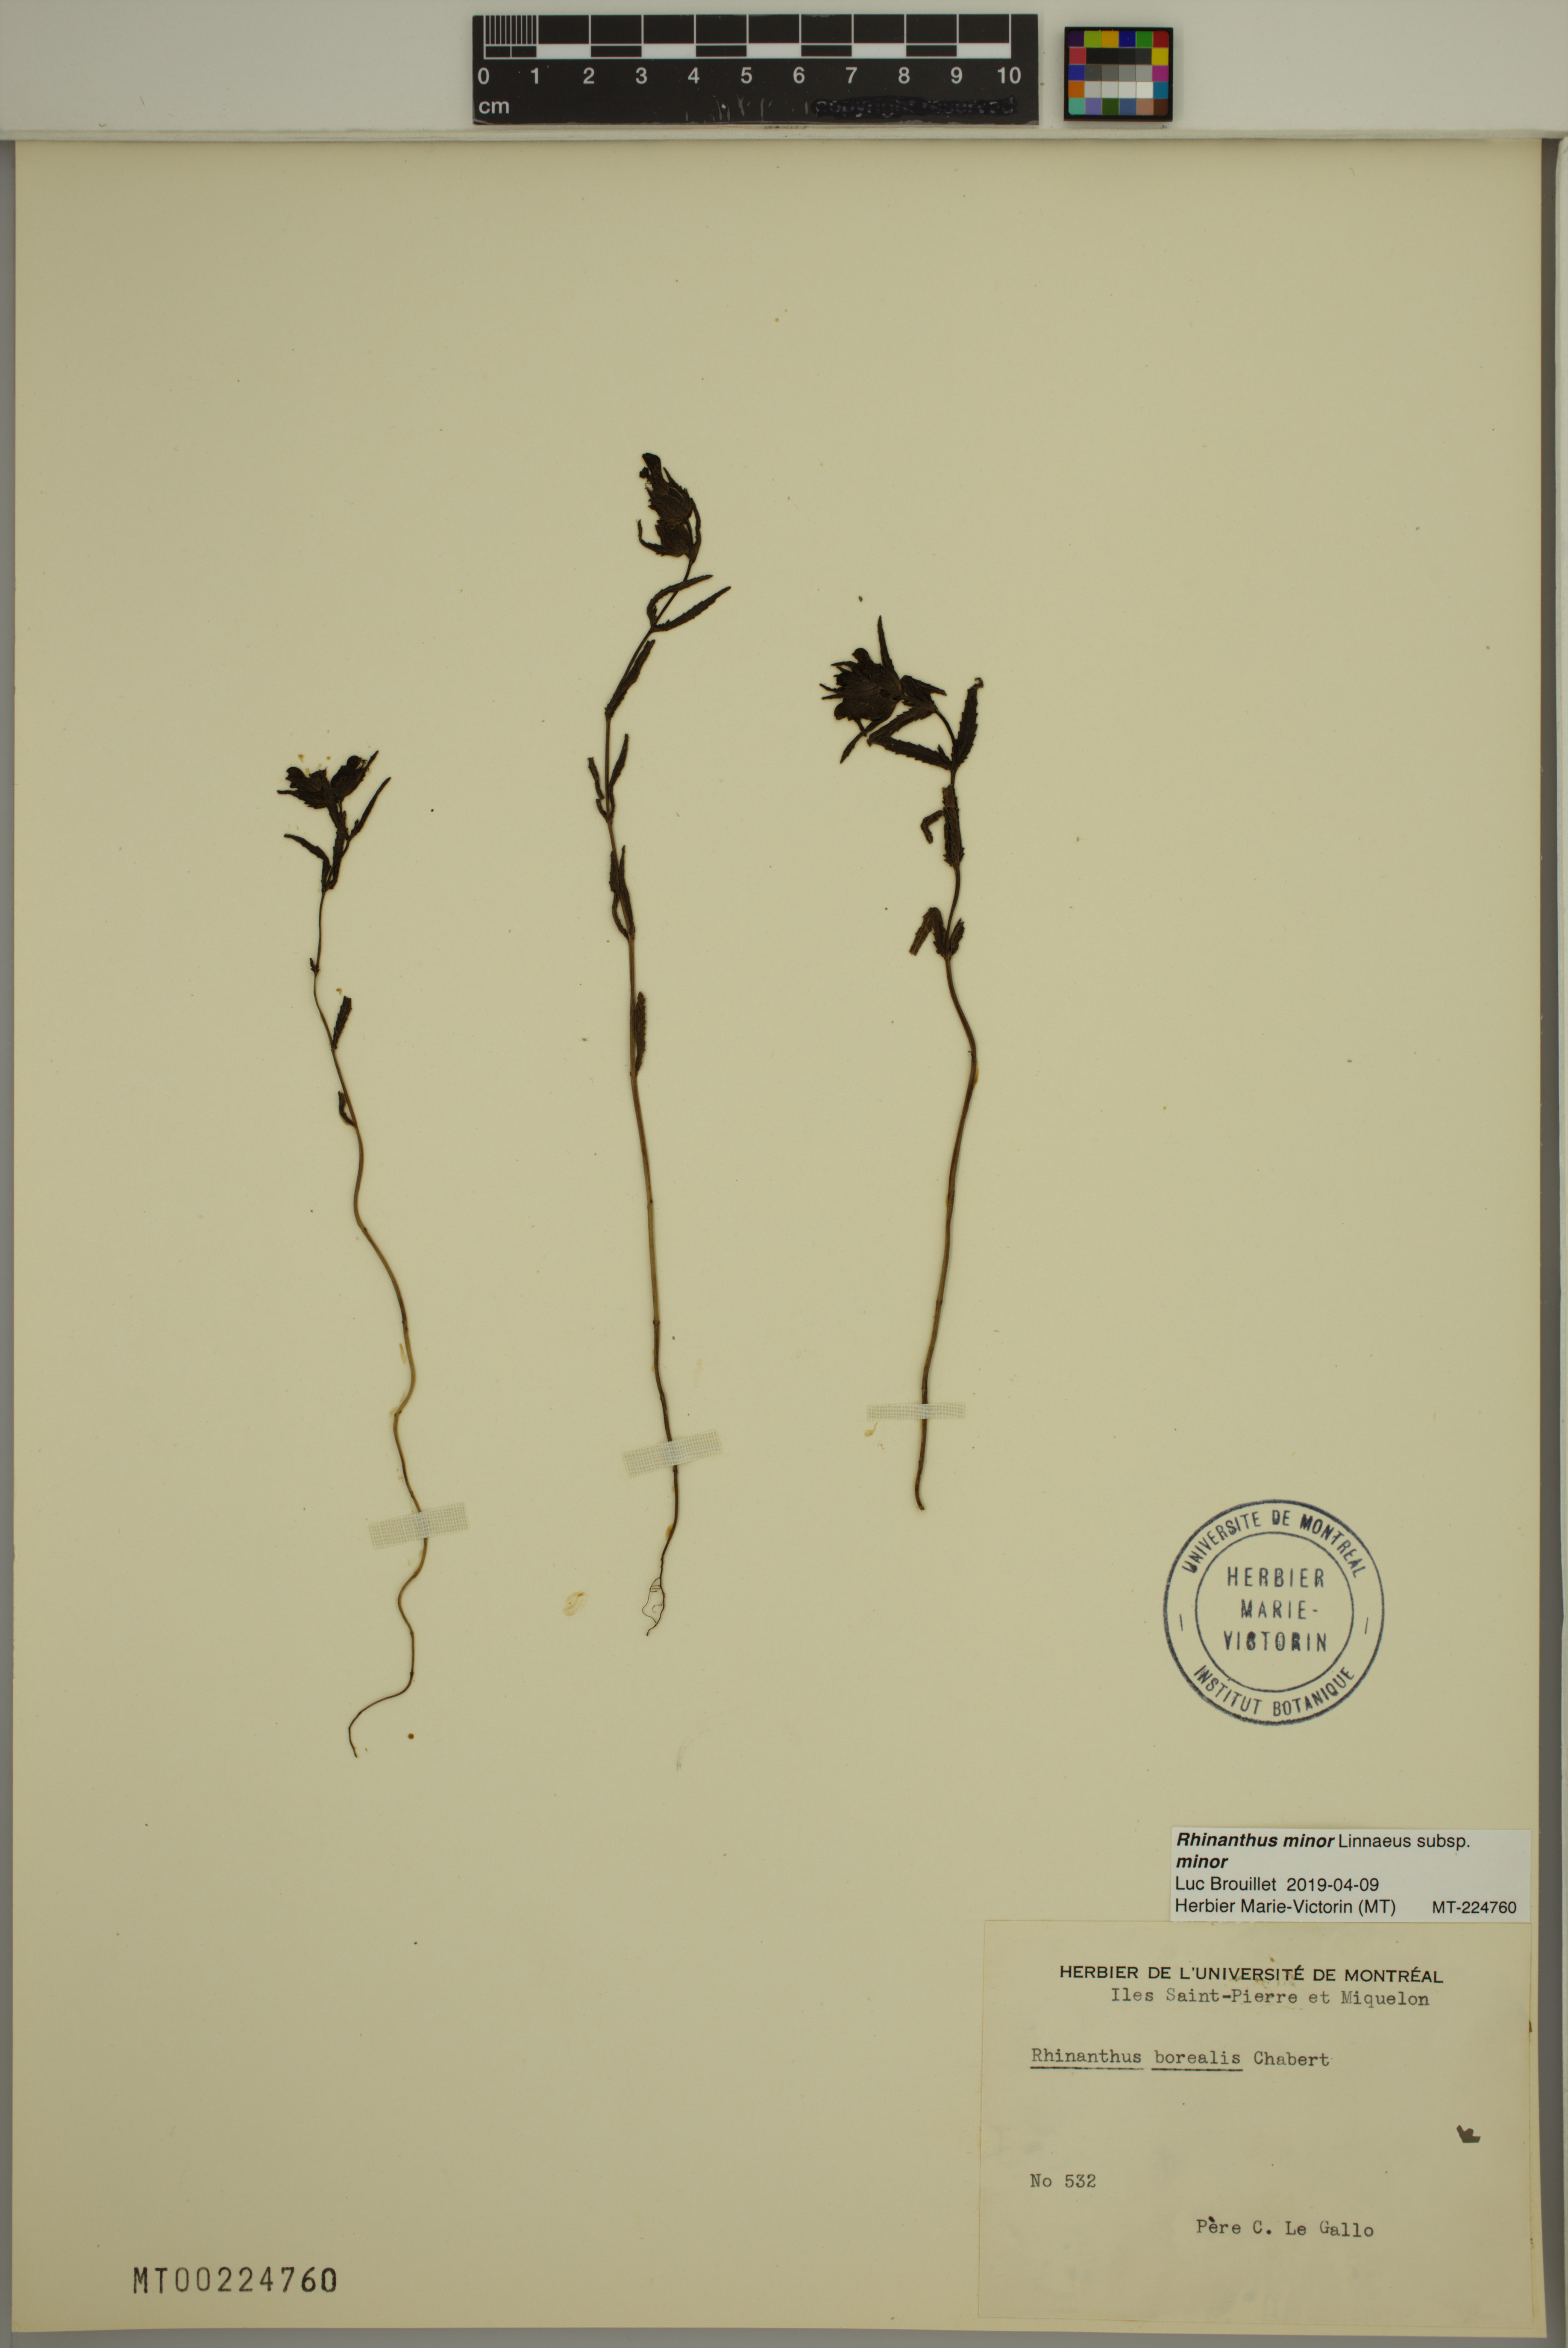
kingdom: Plantae
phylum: Tracheophyta
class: Magnoliopsida
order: Lamiales
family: Orobanchaceae
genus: Rhinanthus
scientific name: Rhinanthus minor
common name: Yellow-rattle
